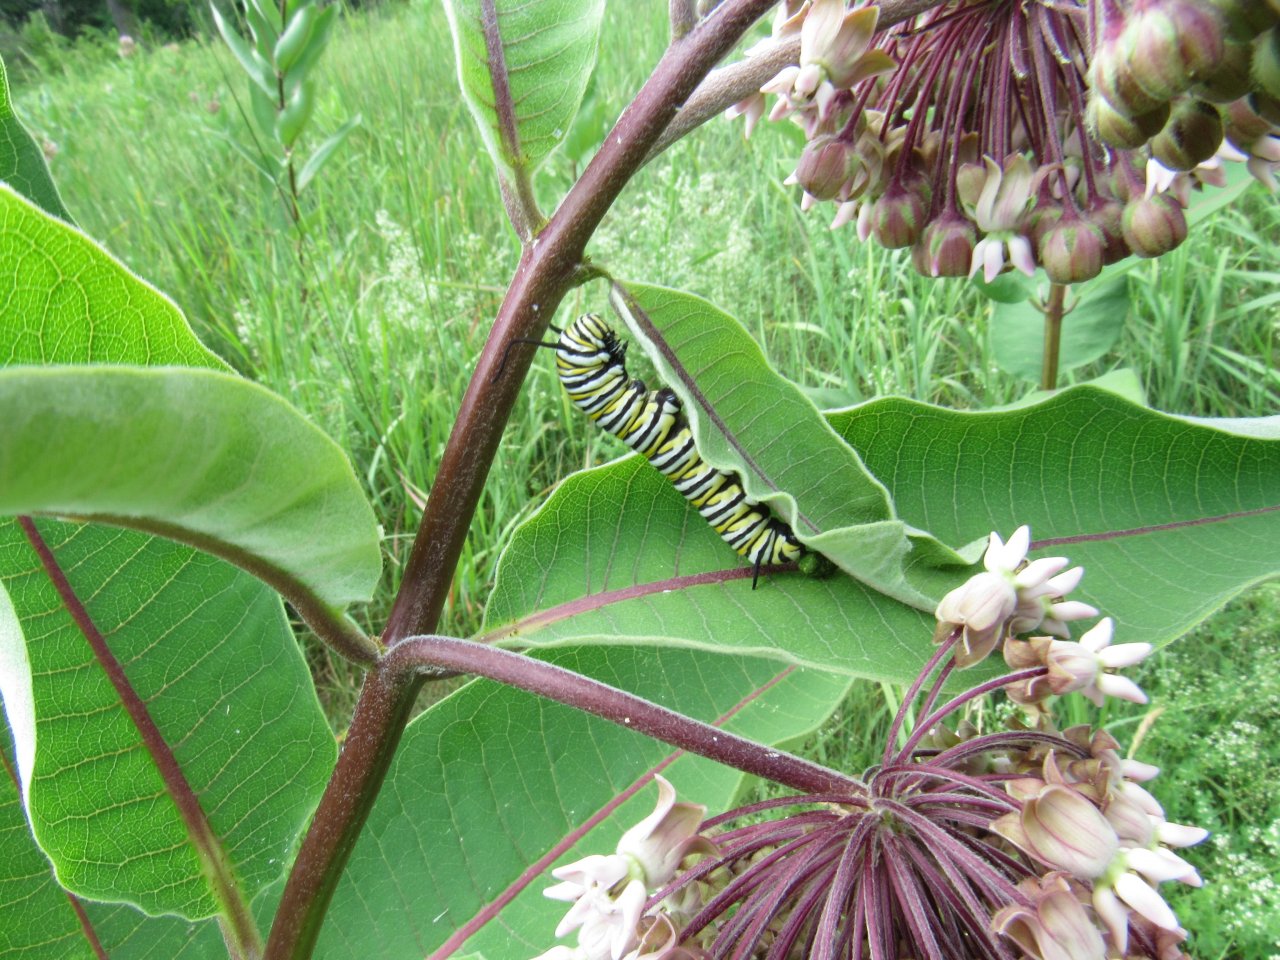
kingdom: Animalia
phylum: Arthropoda
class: Insecta
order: Lepidoptera
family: Nymphalidae
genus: Danaus
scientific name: Danaus plexippus
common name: Monarch
